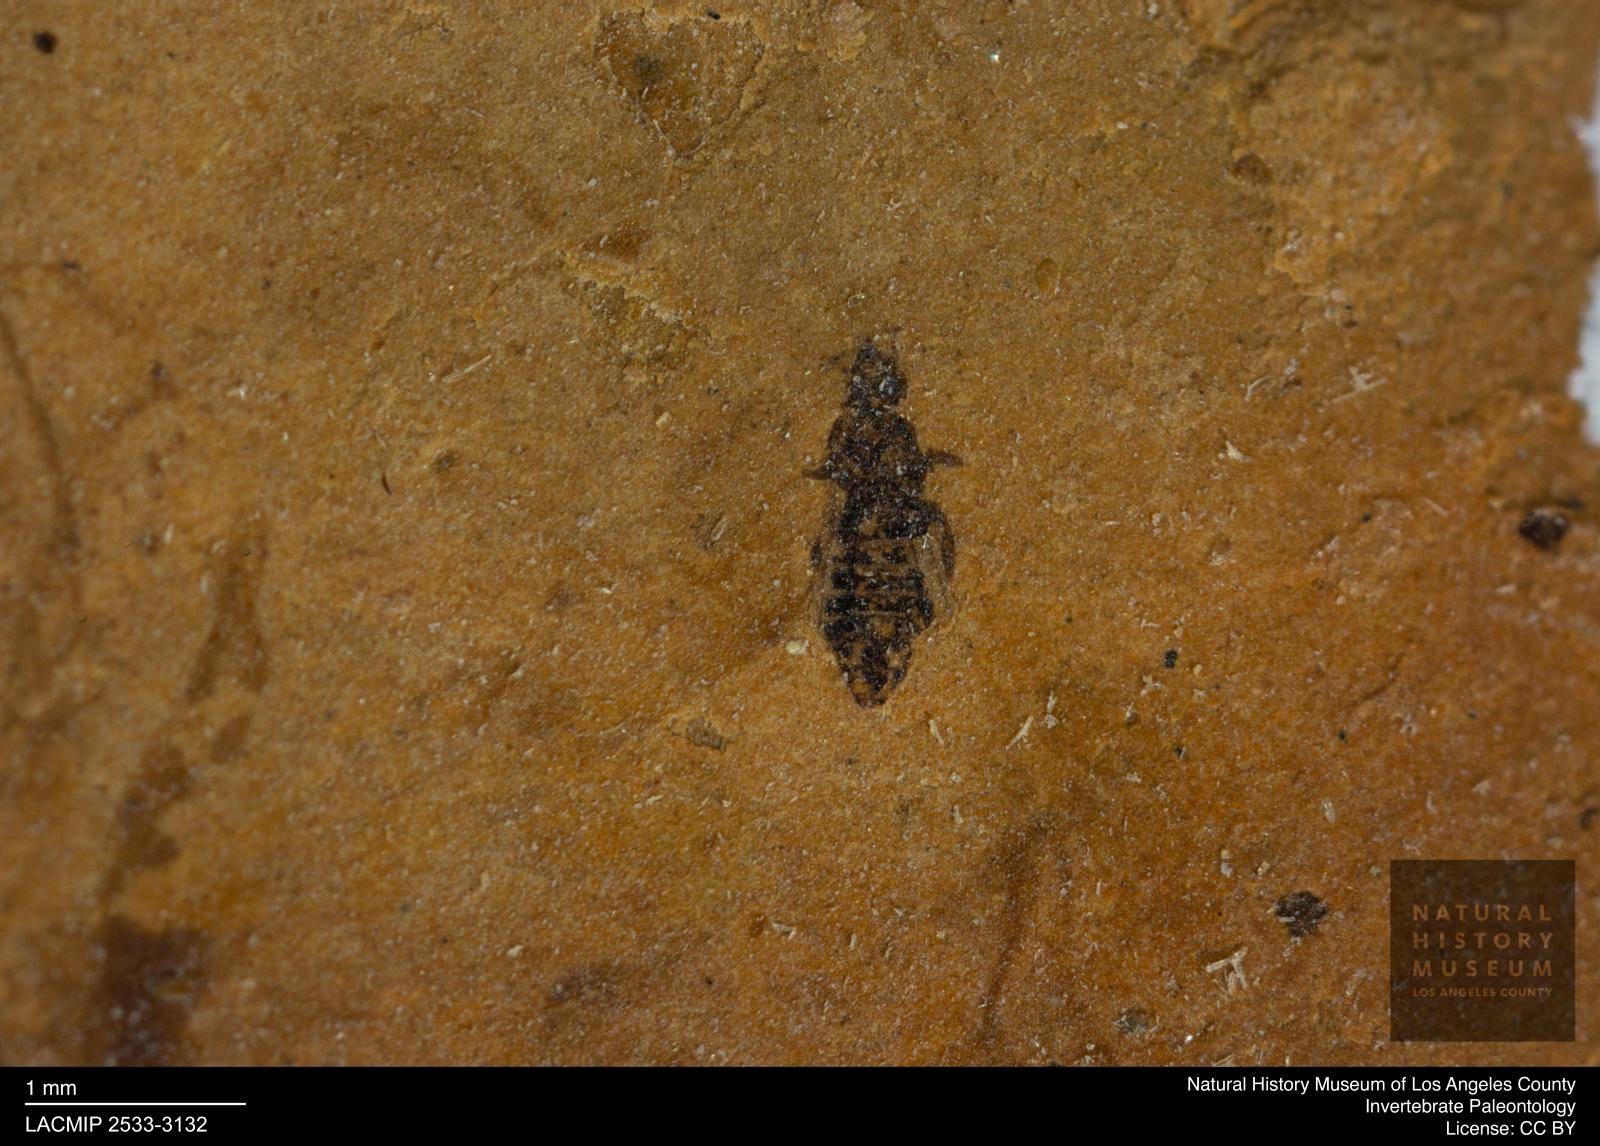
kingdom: Animalia
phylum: Arthropoda
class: Insecta
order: Thysanoptera
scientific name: Thysanoptera
